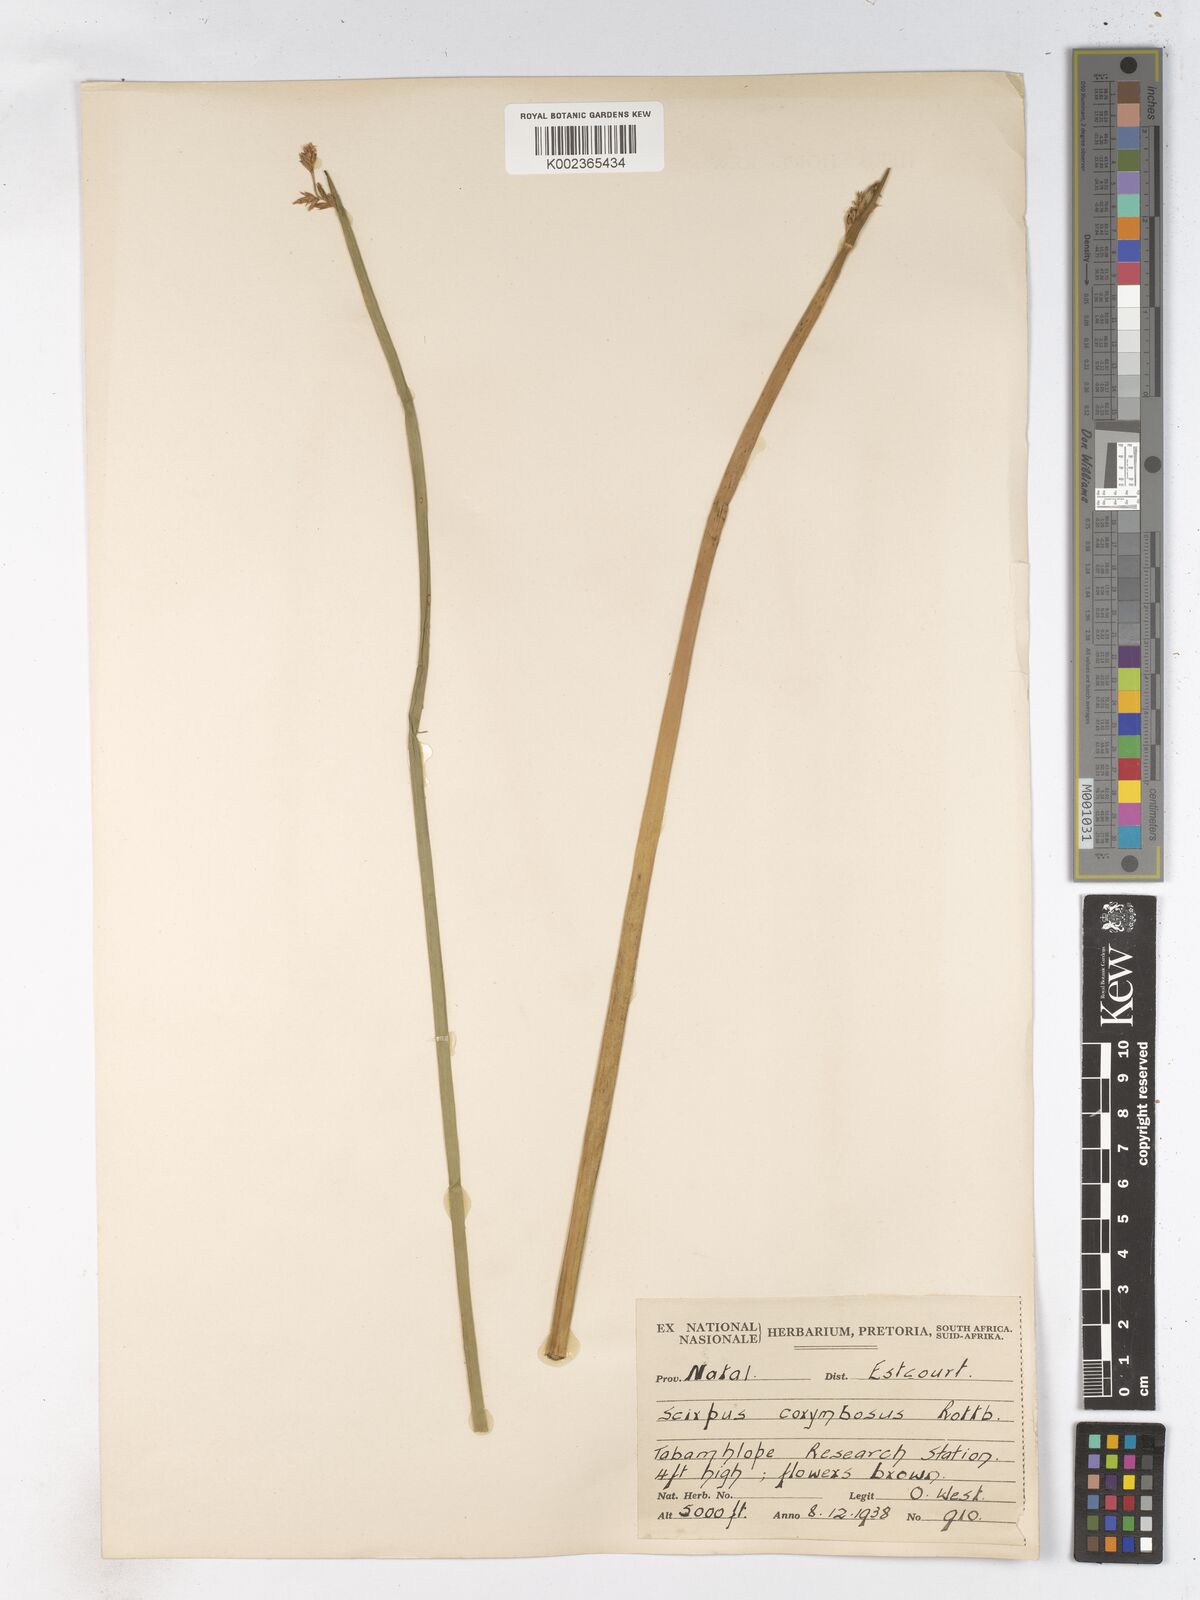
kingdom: Plantae
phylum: Tracheophyta
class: Liliopsida
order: Poales
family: Cyperaceae
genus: Schoenoplectiella
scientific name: Schoenoplectiella brachyceras
